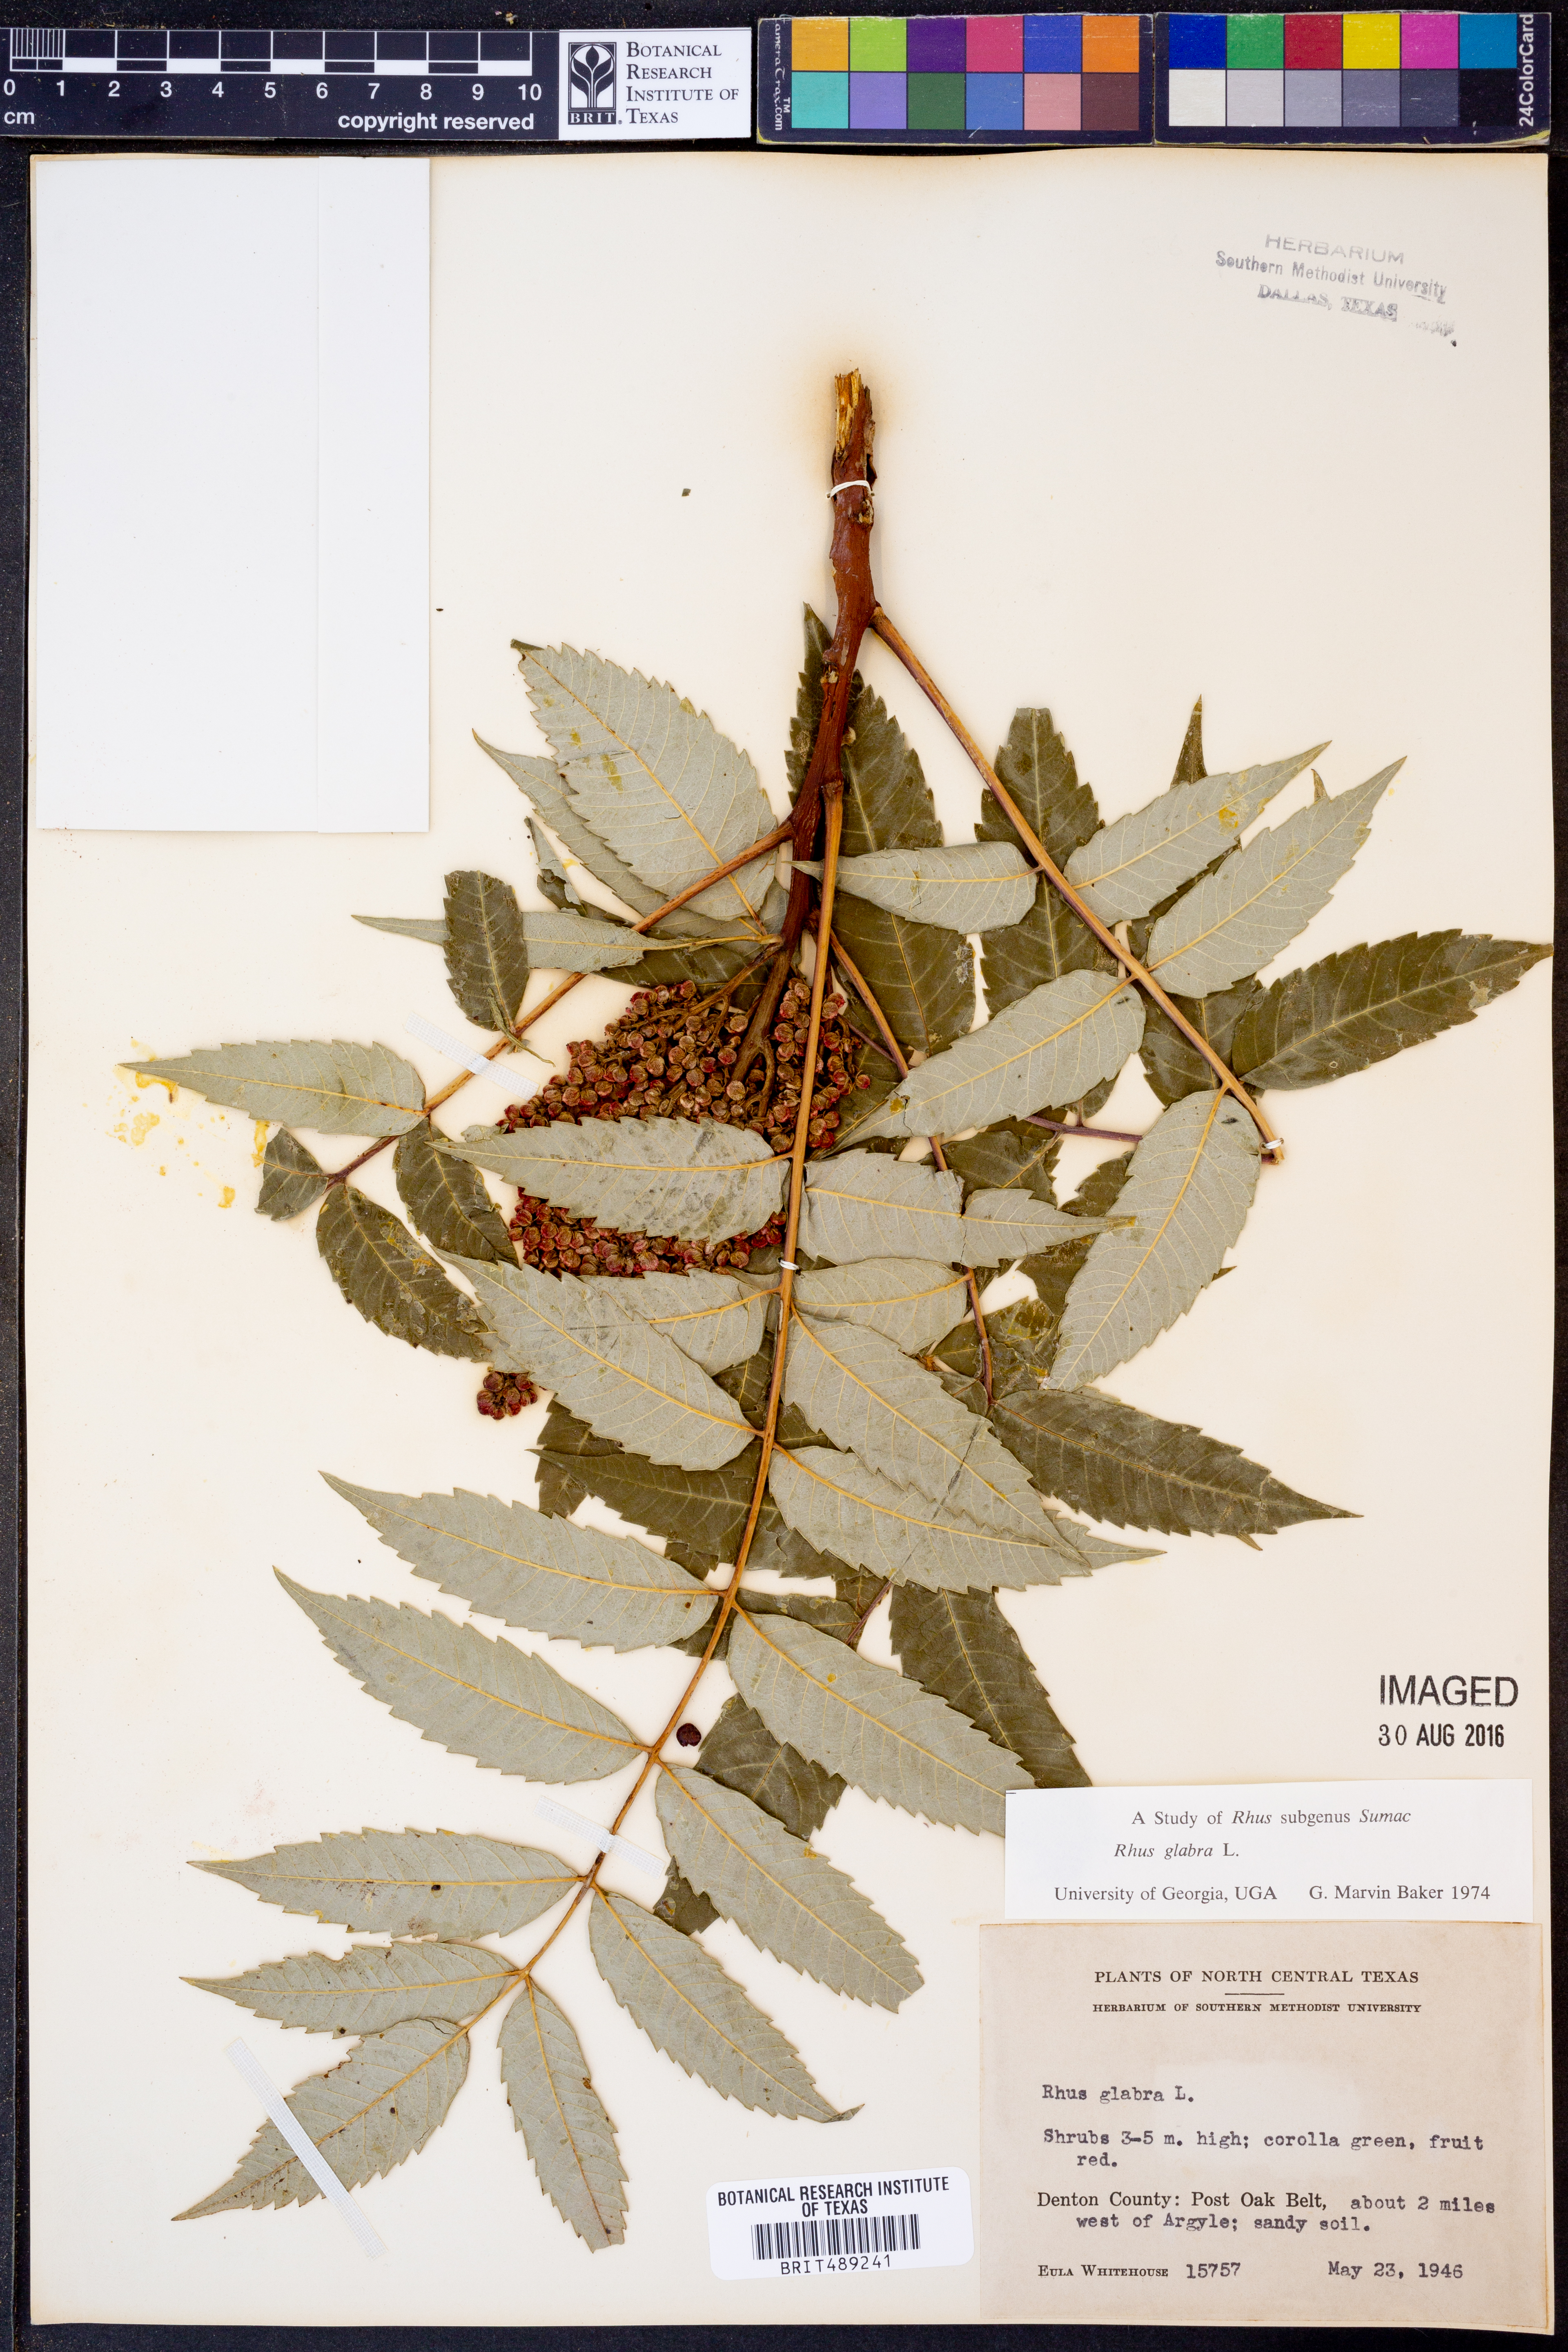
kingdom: Plantae
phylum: Tracheophyta
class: Magnoliopsida
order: Sapindales
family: Anacardiaceae
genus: Rhus
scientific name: Rhus glabra
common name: Scarlet sumac
